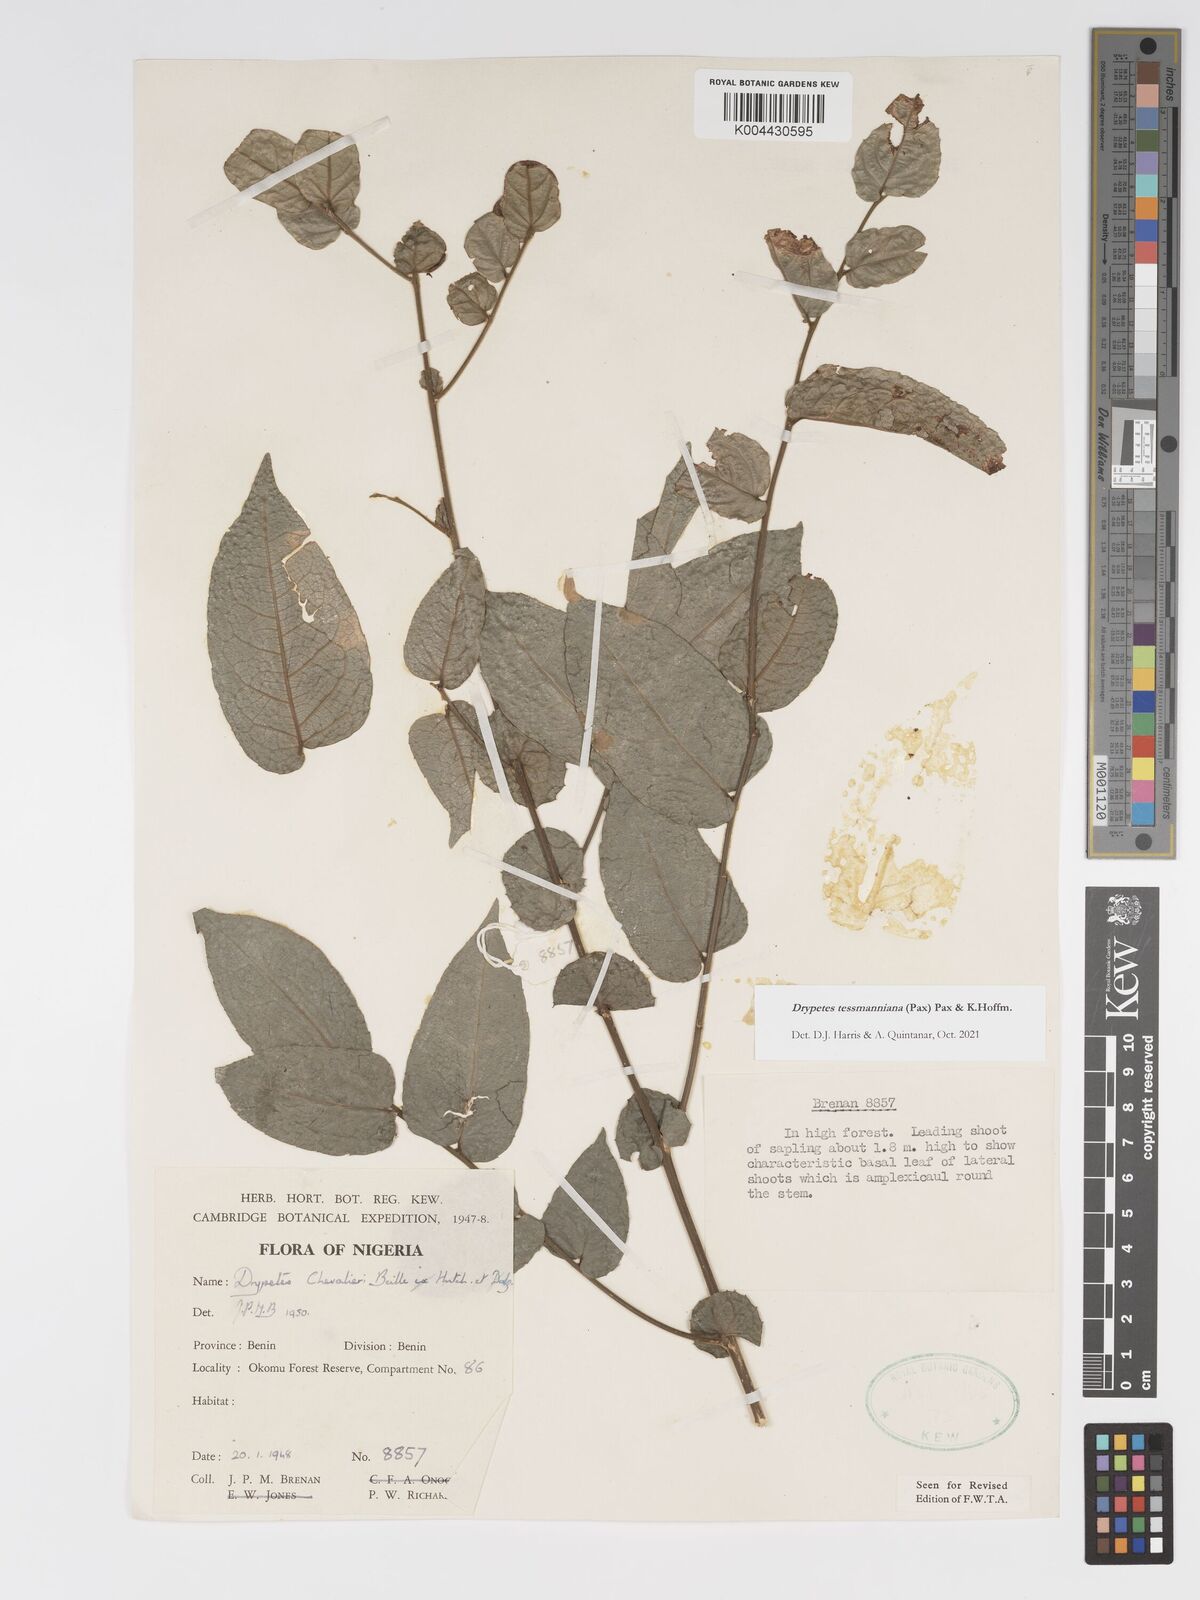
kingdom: Plantae
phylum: Tracheophyta
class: Magnoliopsida
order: Malpighiales
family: Putranjivaceae
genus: Drypetes
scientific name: Drypetes tessmanniana
